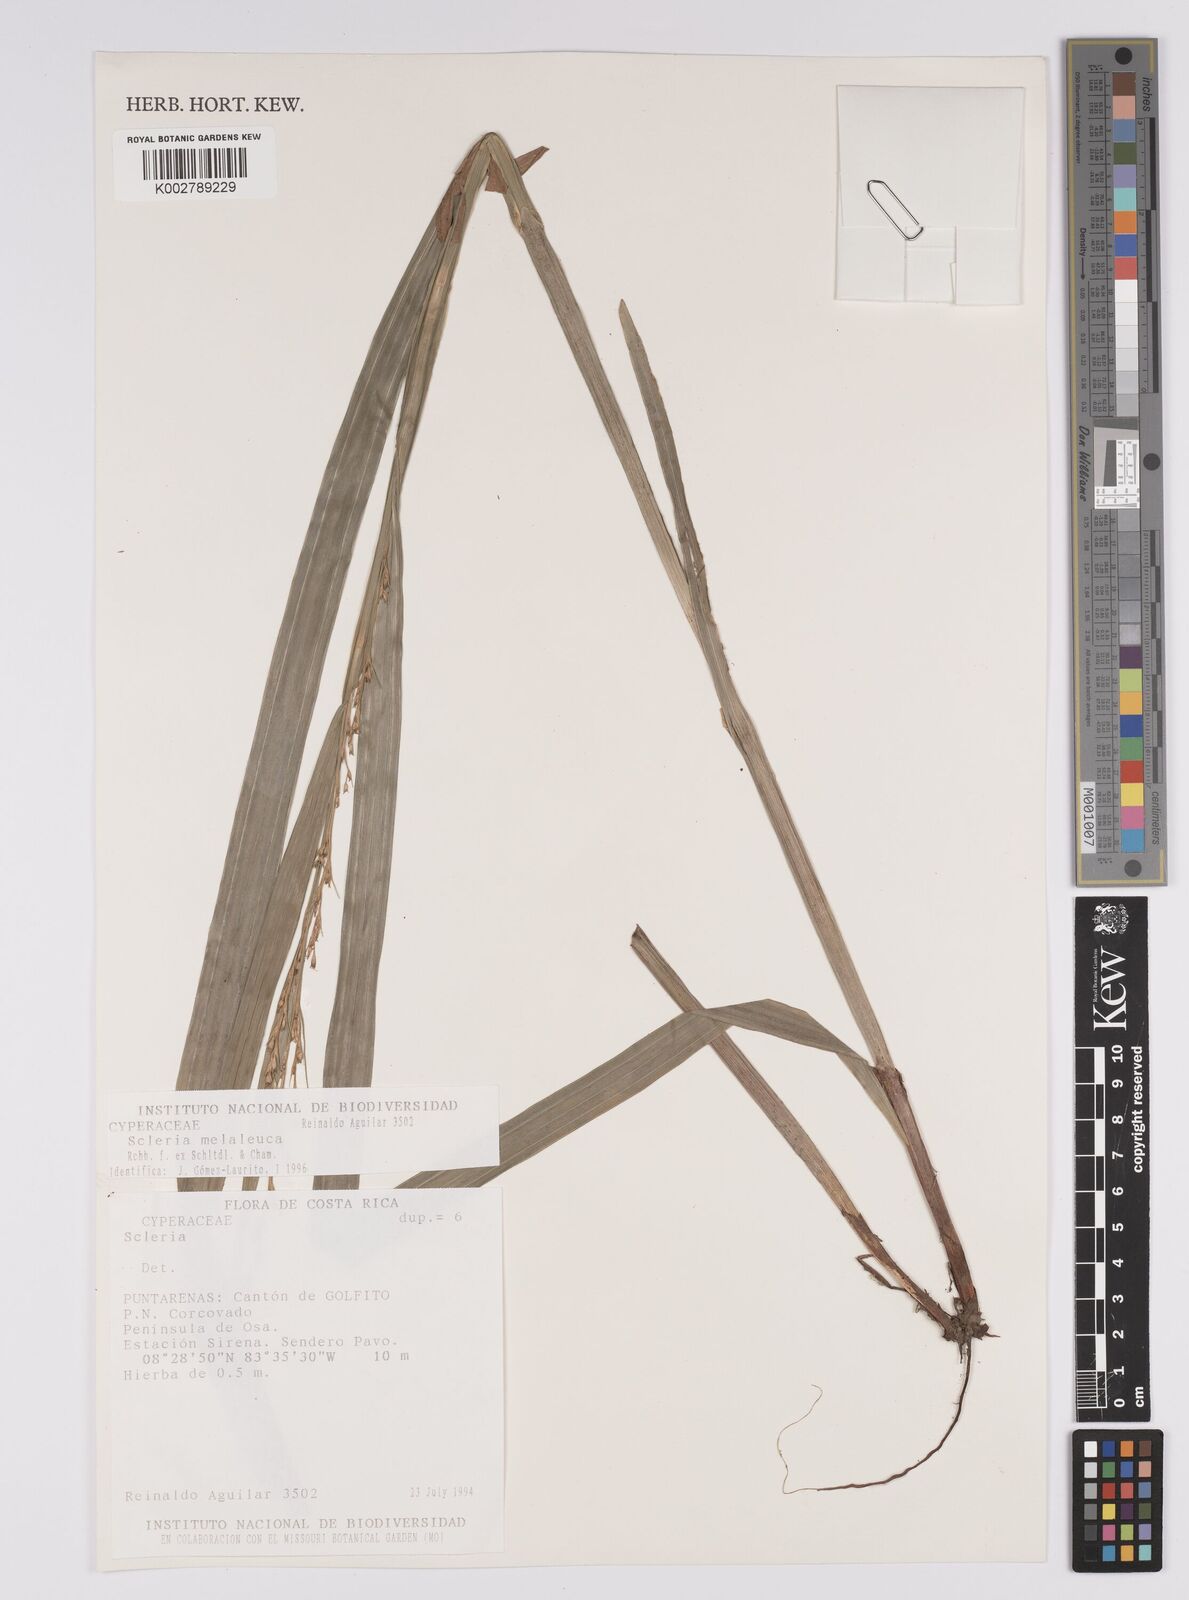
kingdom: Plantae
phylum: Tracheophyta
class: Liliopsida
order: Poales
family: Cyperaceae
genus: Scleria
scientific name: Scleria gaertneri
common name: Cortadera blanca
